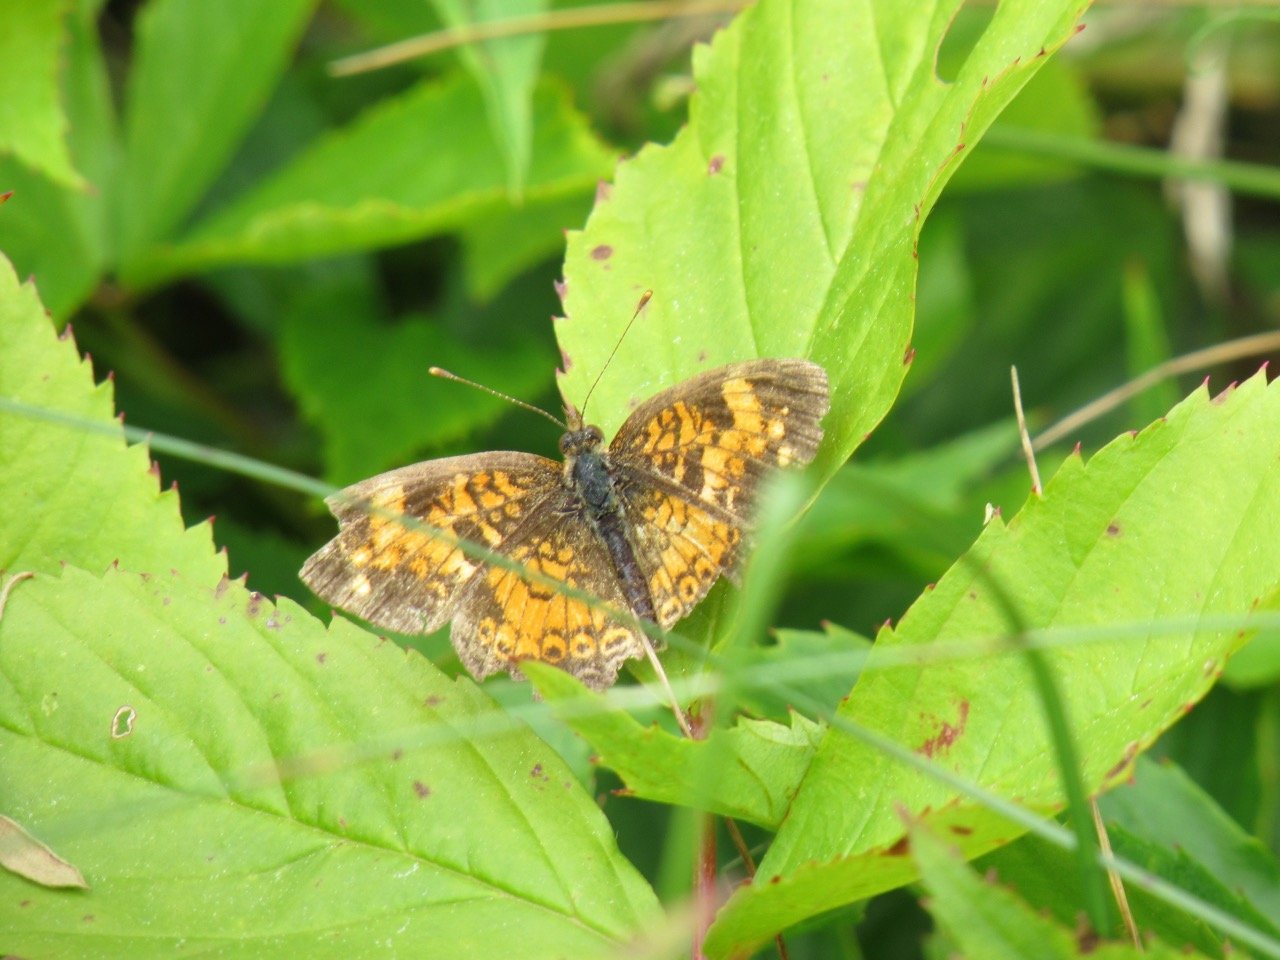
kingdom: Animalia
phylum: Arthropoda
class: Insecta
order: Lepidoptera
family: Nymphalidae
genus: Phyciodes
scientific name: Phyciodes tharos
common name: Pearl Crescent
